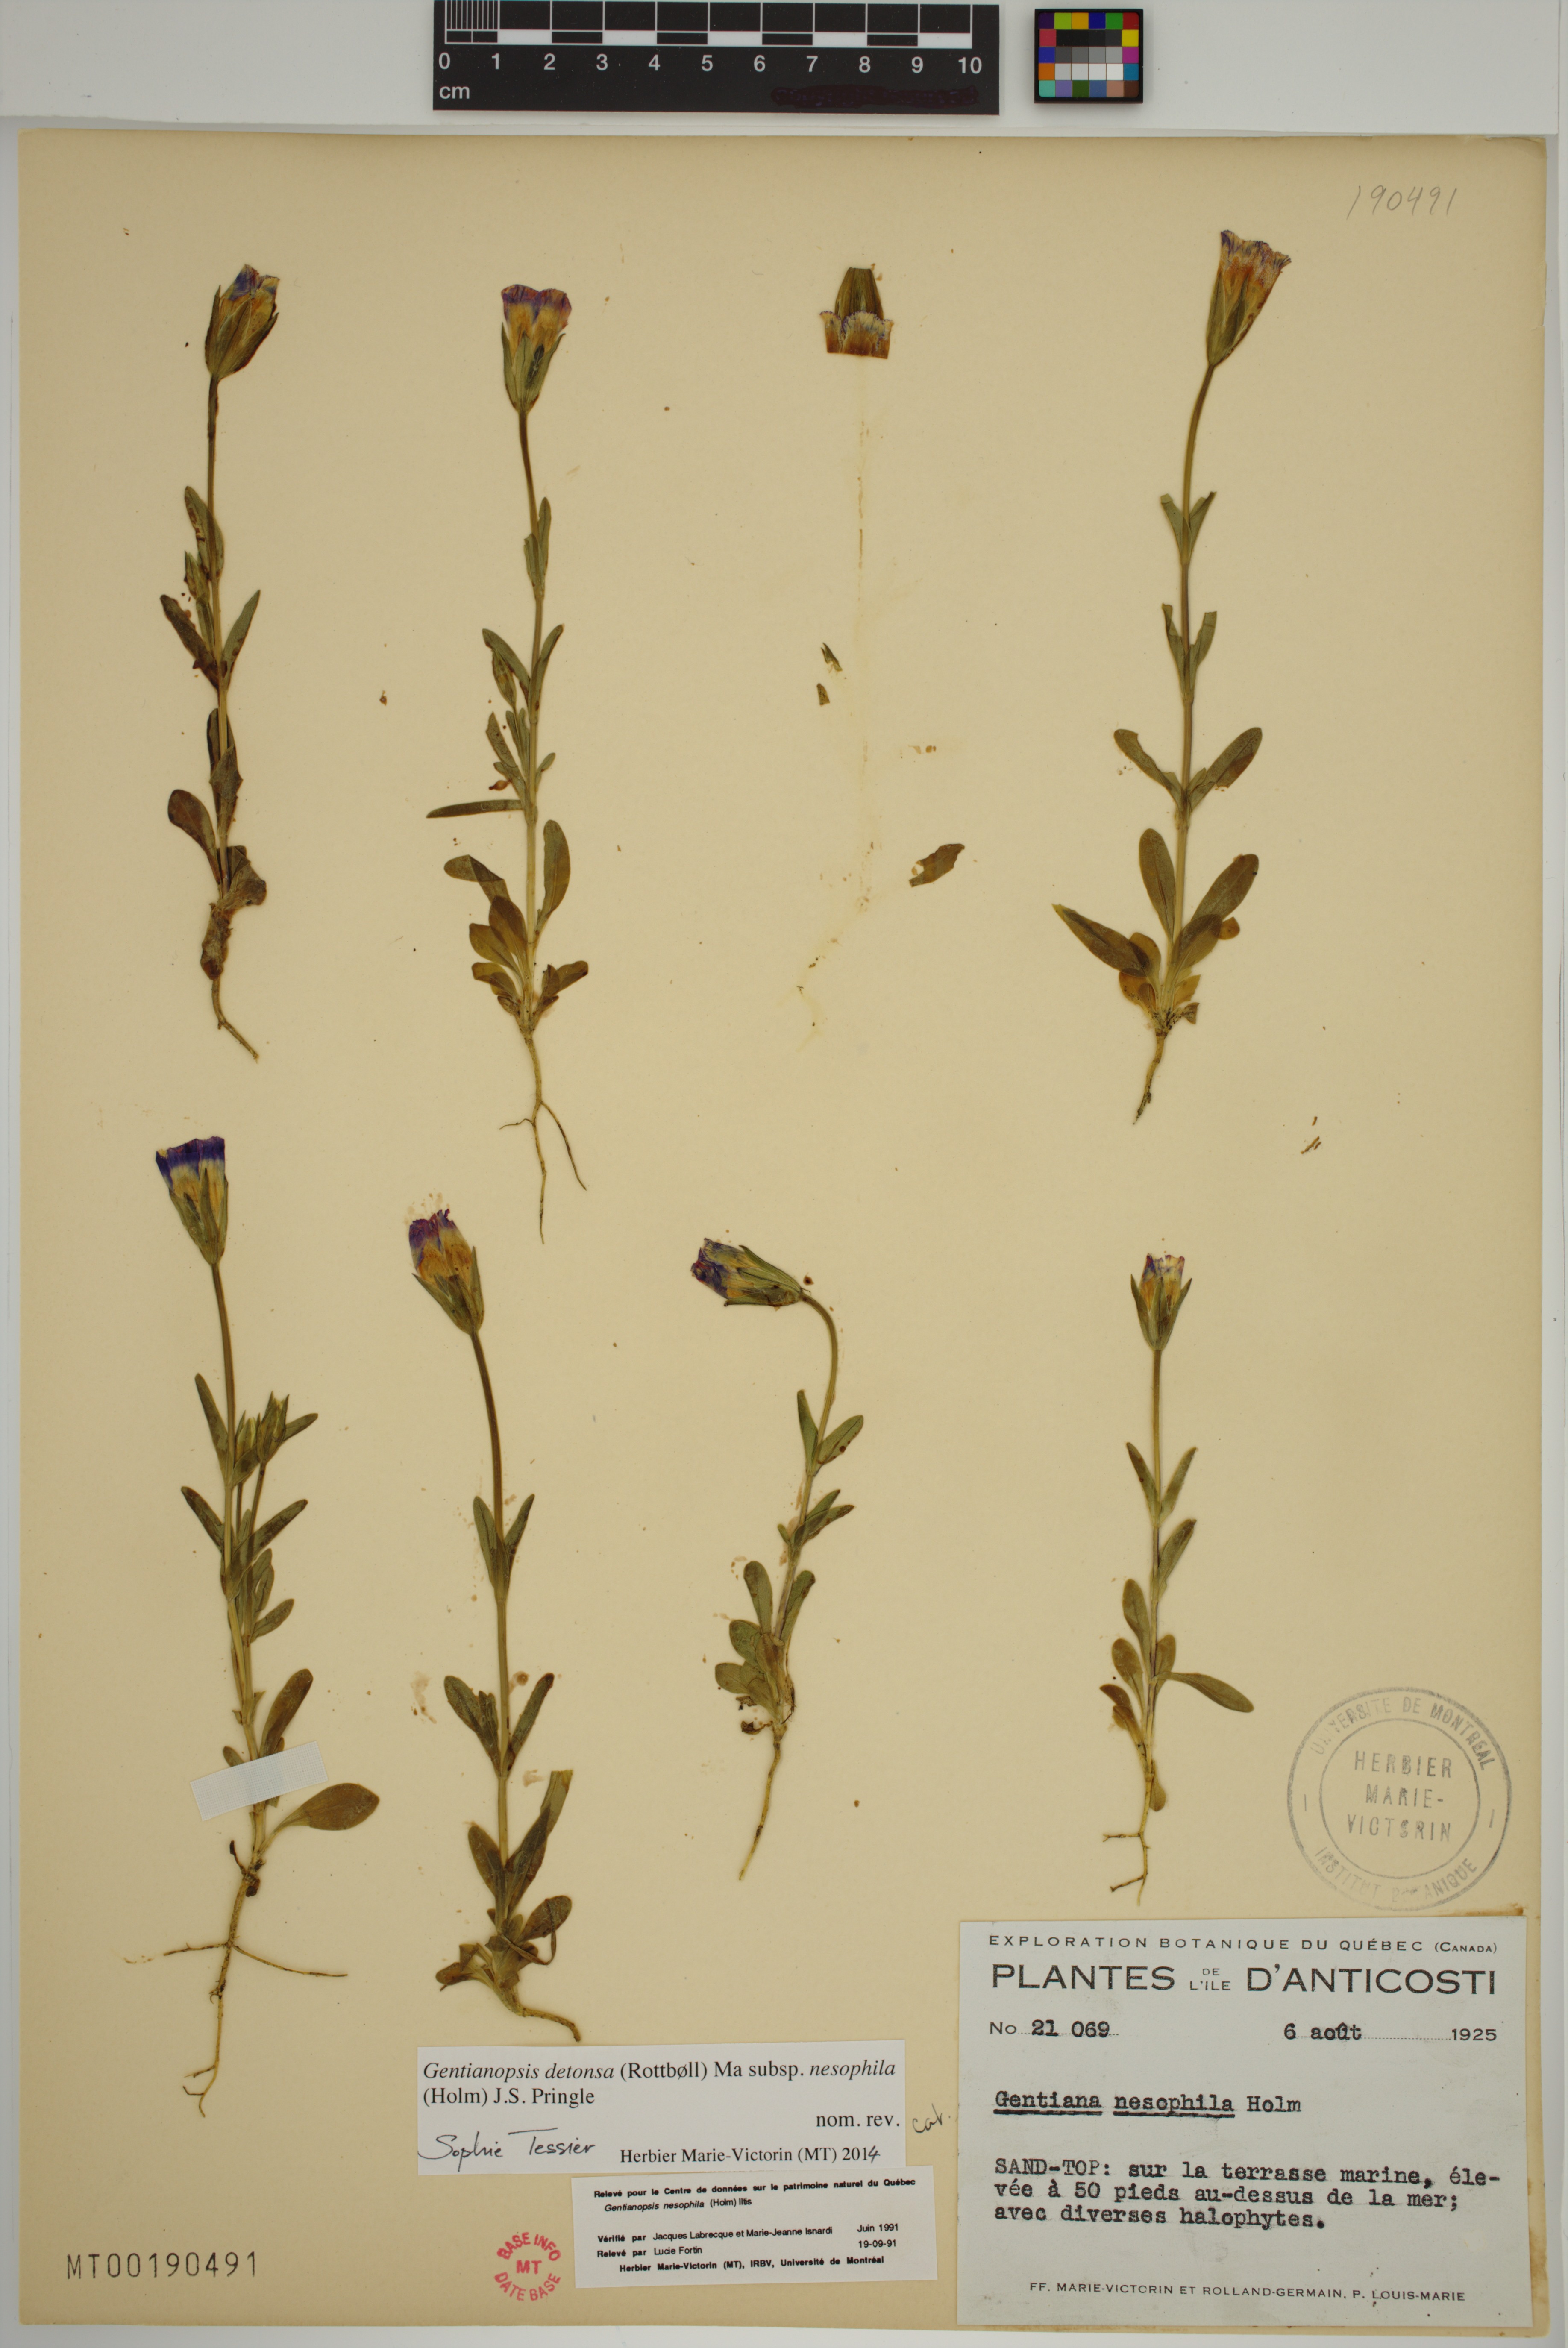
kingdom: Plantae
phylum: Tracheophyta
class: Magnoliopsida
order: Gentianales
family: Gentianaceae
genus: Gentianopsis
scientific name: Gentianopsis nesophila
